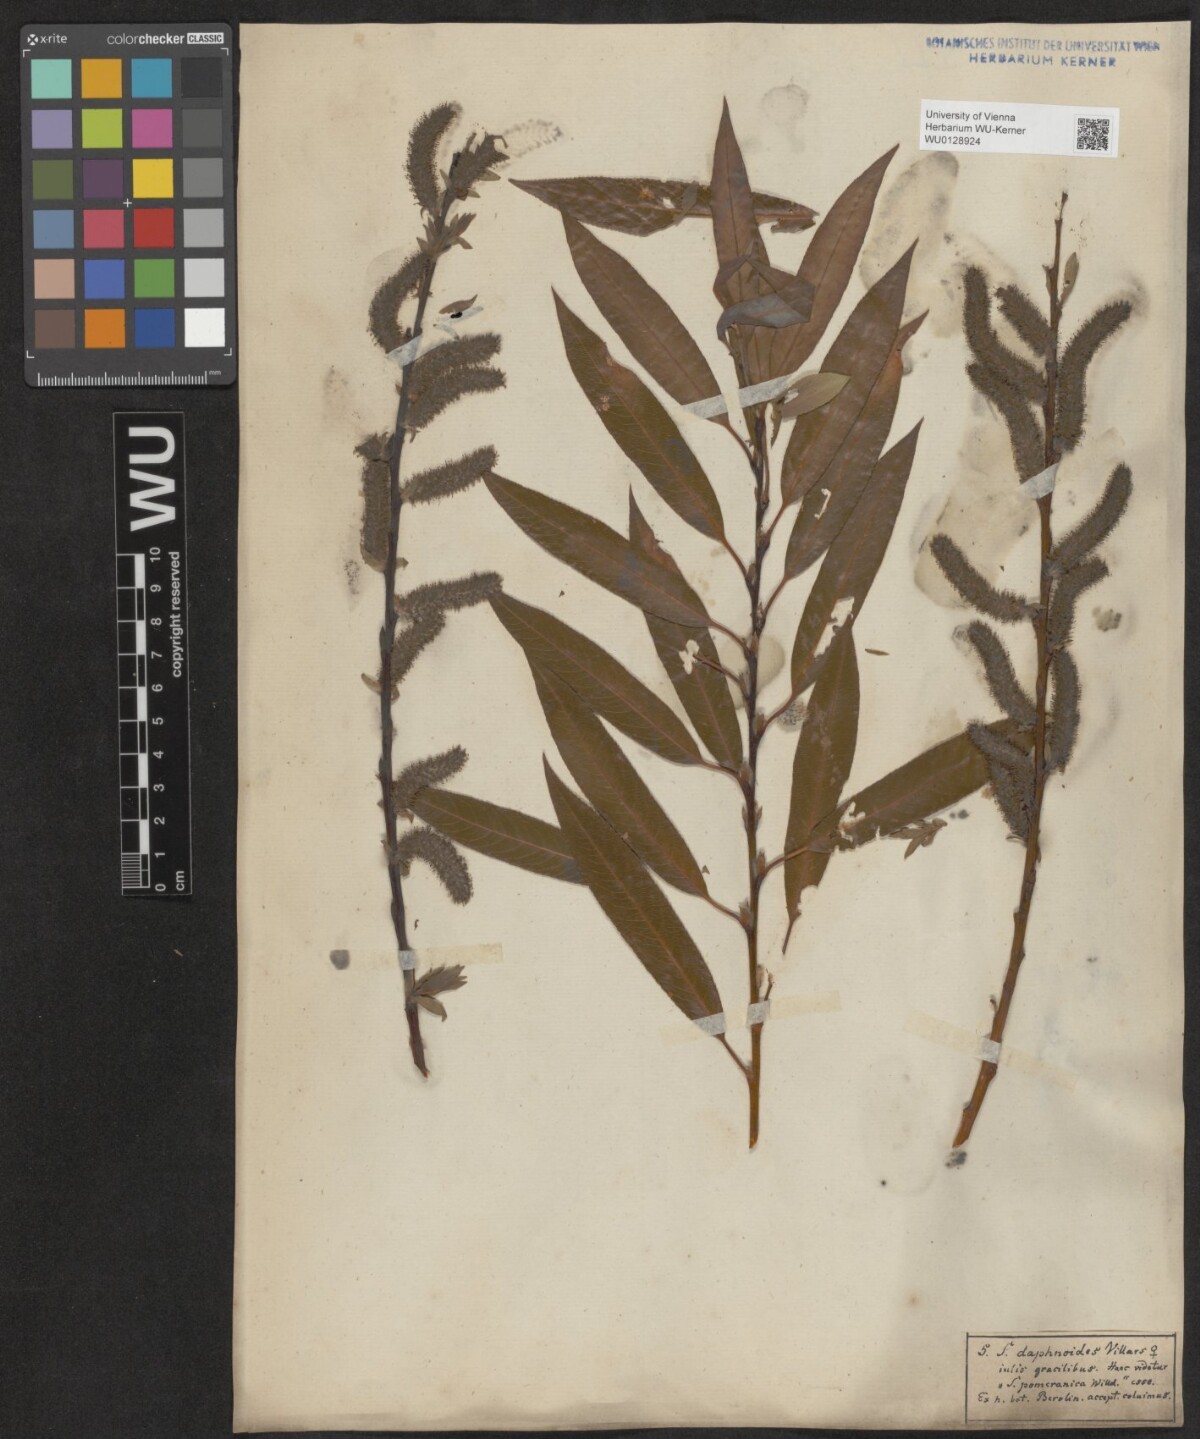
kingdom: Plantae
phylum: Tracheophyta
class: Magnoliopsida
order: Malpighiales
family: Salicaceae
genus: Salix
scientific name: Salix daphnoides
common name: European violet-willow
